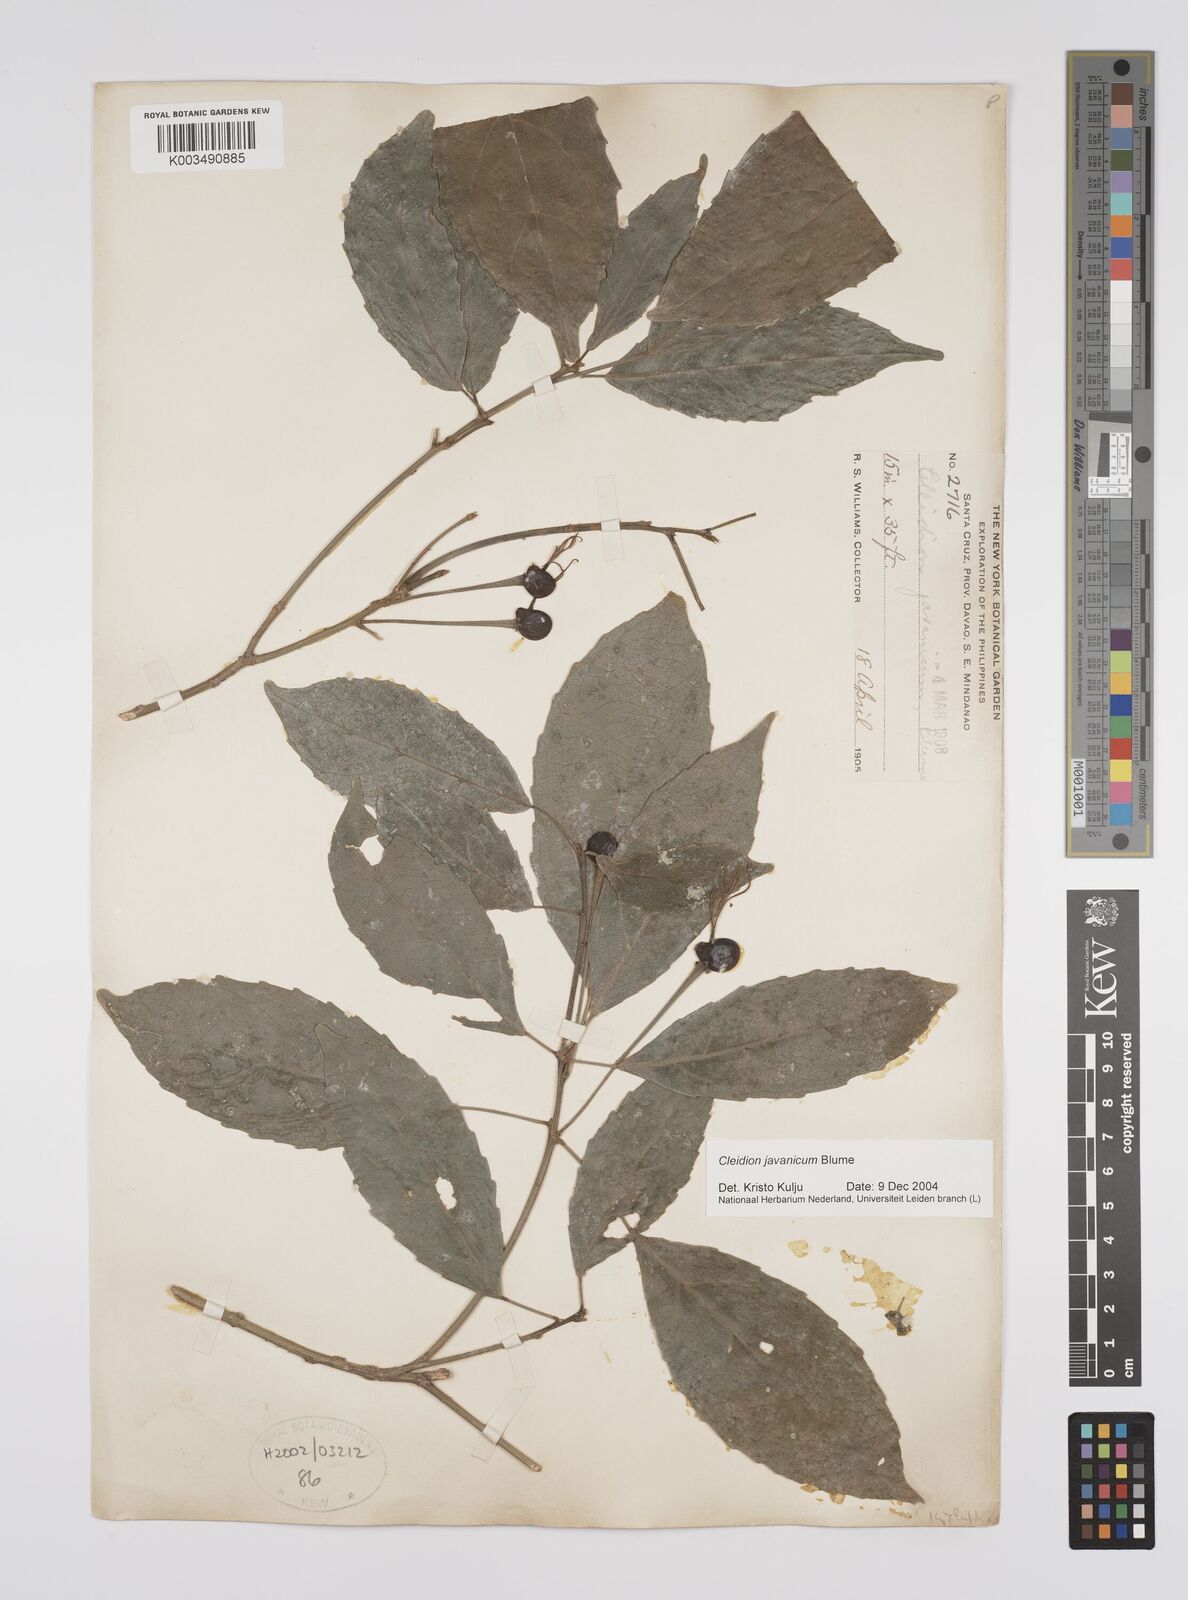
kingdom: Plantae
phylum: Tracheophyta
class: Magnoliopsida
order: Malpighiales
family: Euphorbiaceae
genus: Cleidion
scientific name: Cleidion javanicum
